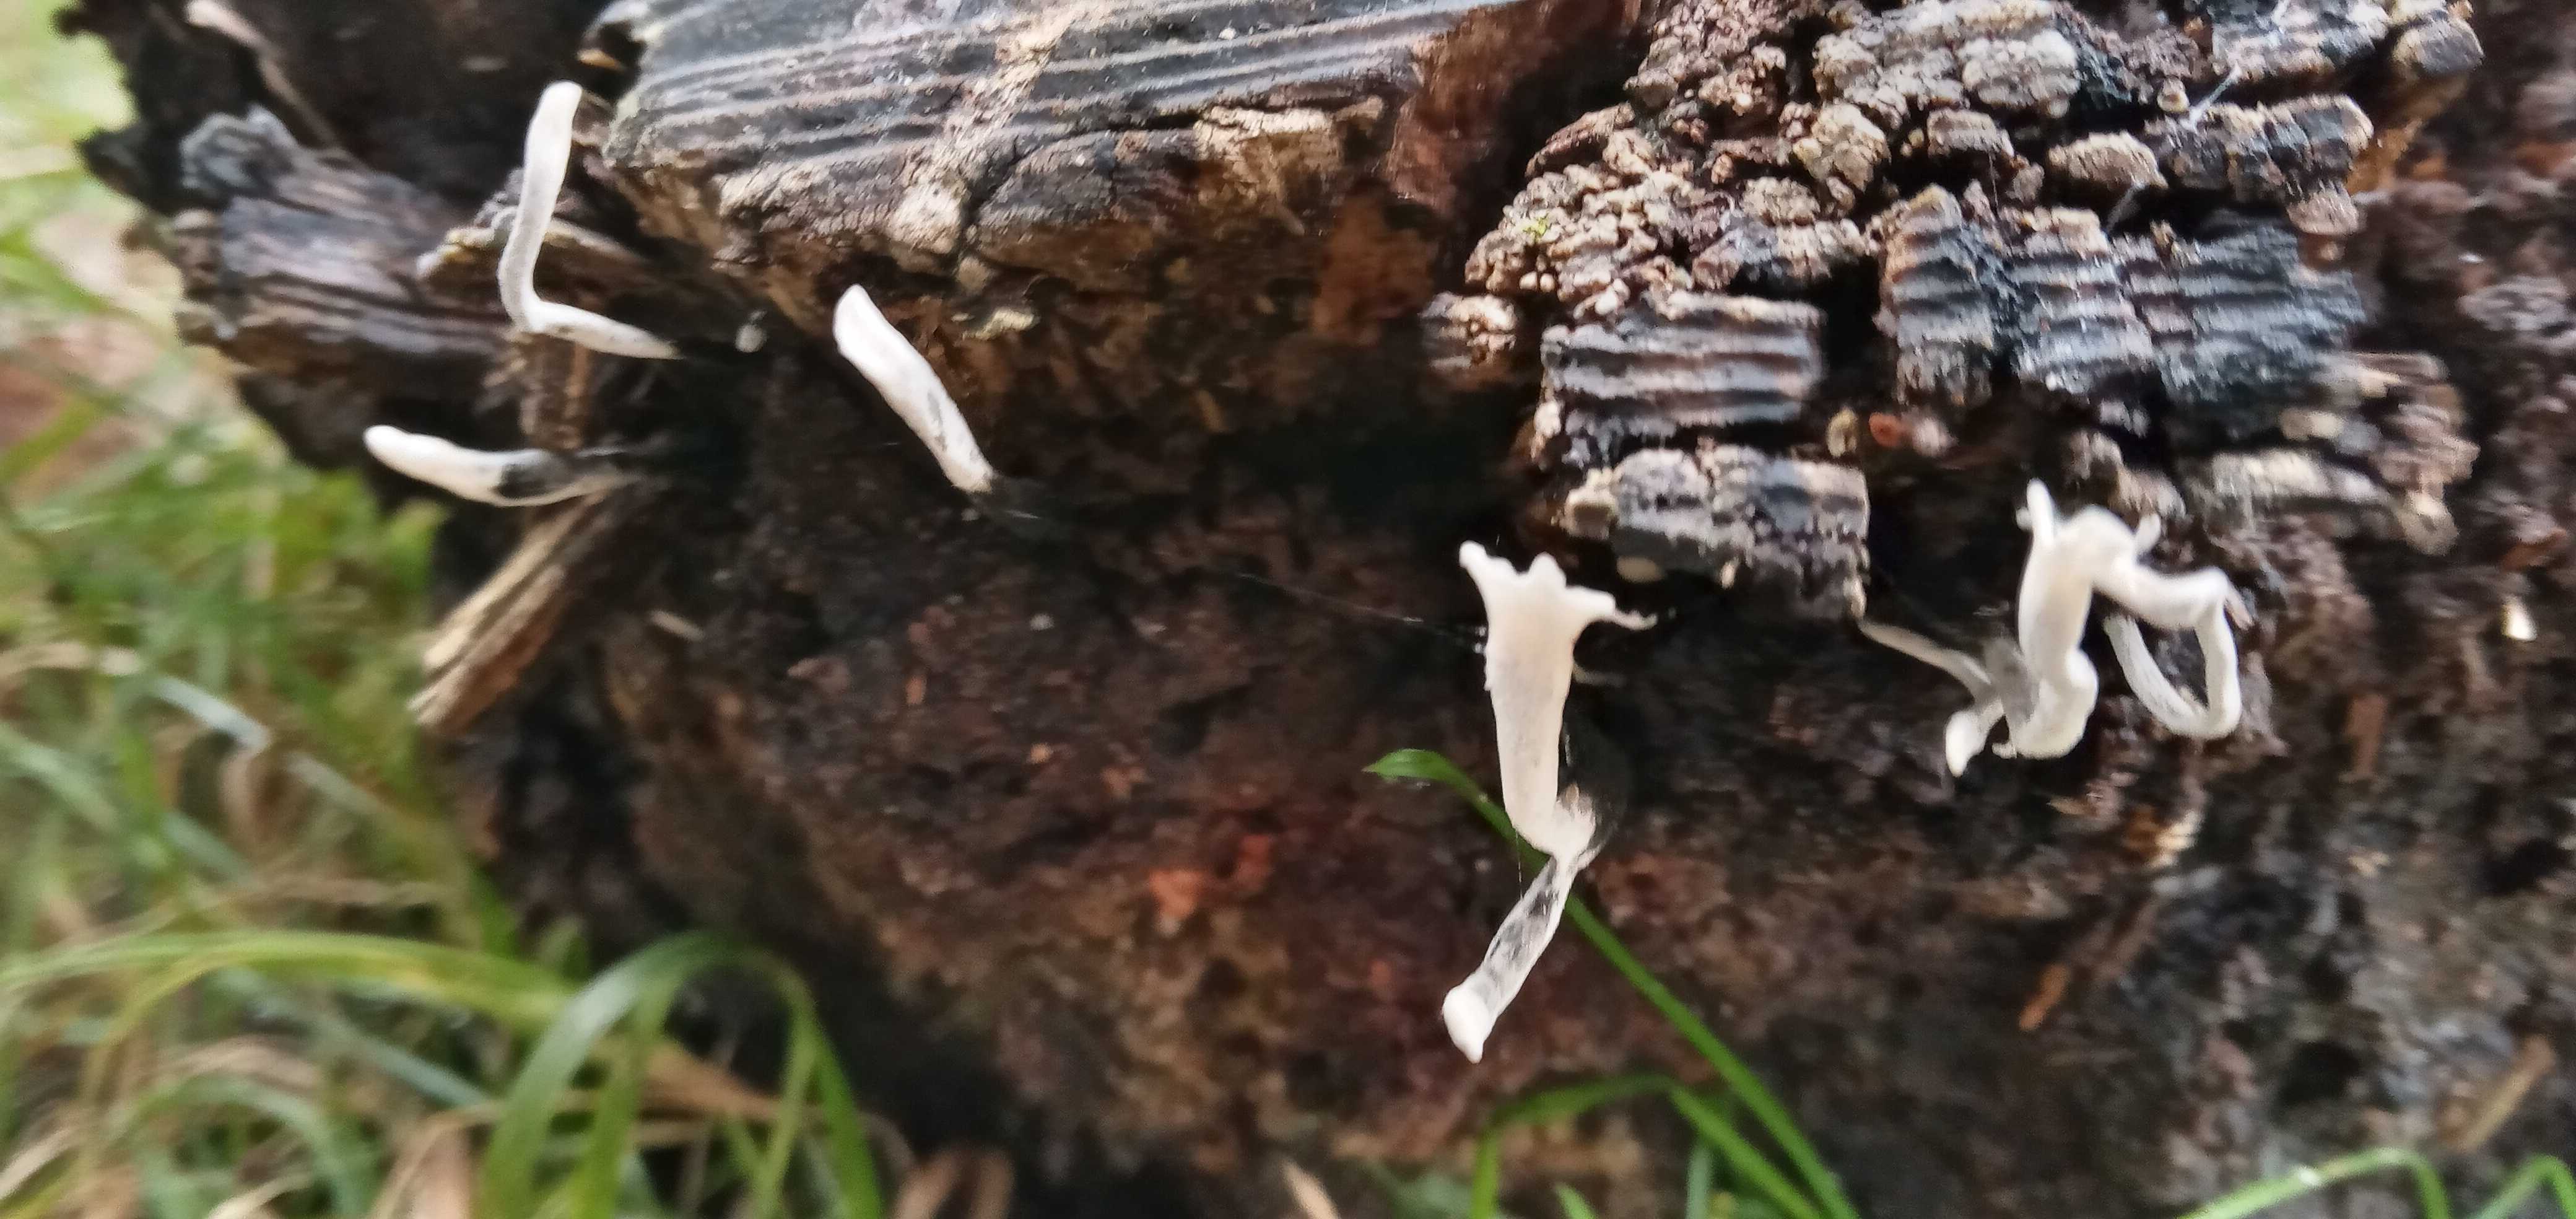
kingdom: Fungi
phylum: Ascomycota
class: Sordariomycetes
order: Xylariales
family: Xylariaceae
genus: Xylaria
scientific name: Xylaria hypoxylon
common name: grenet stødsvamp
